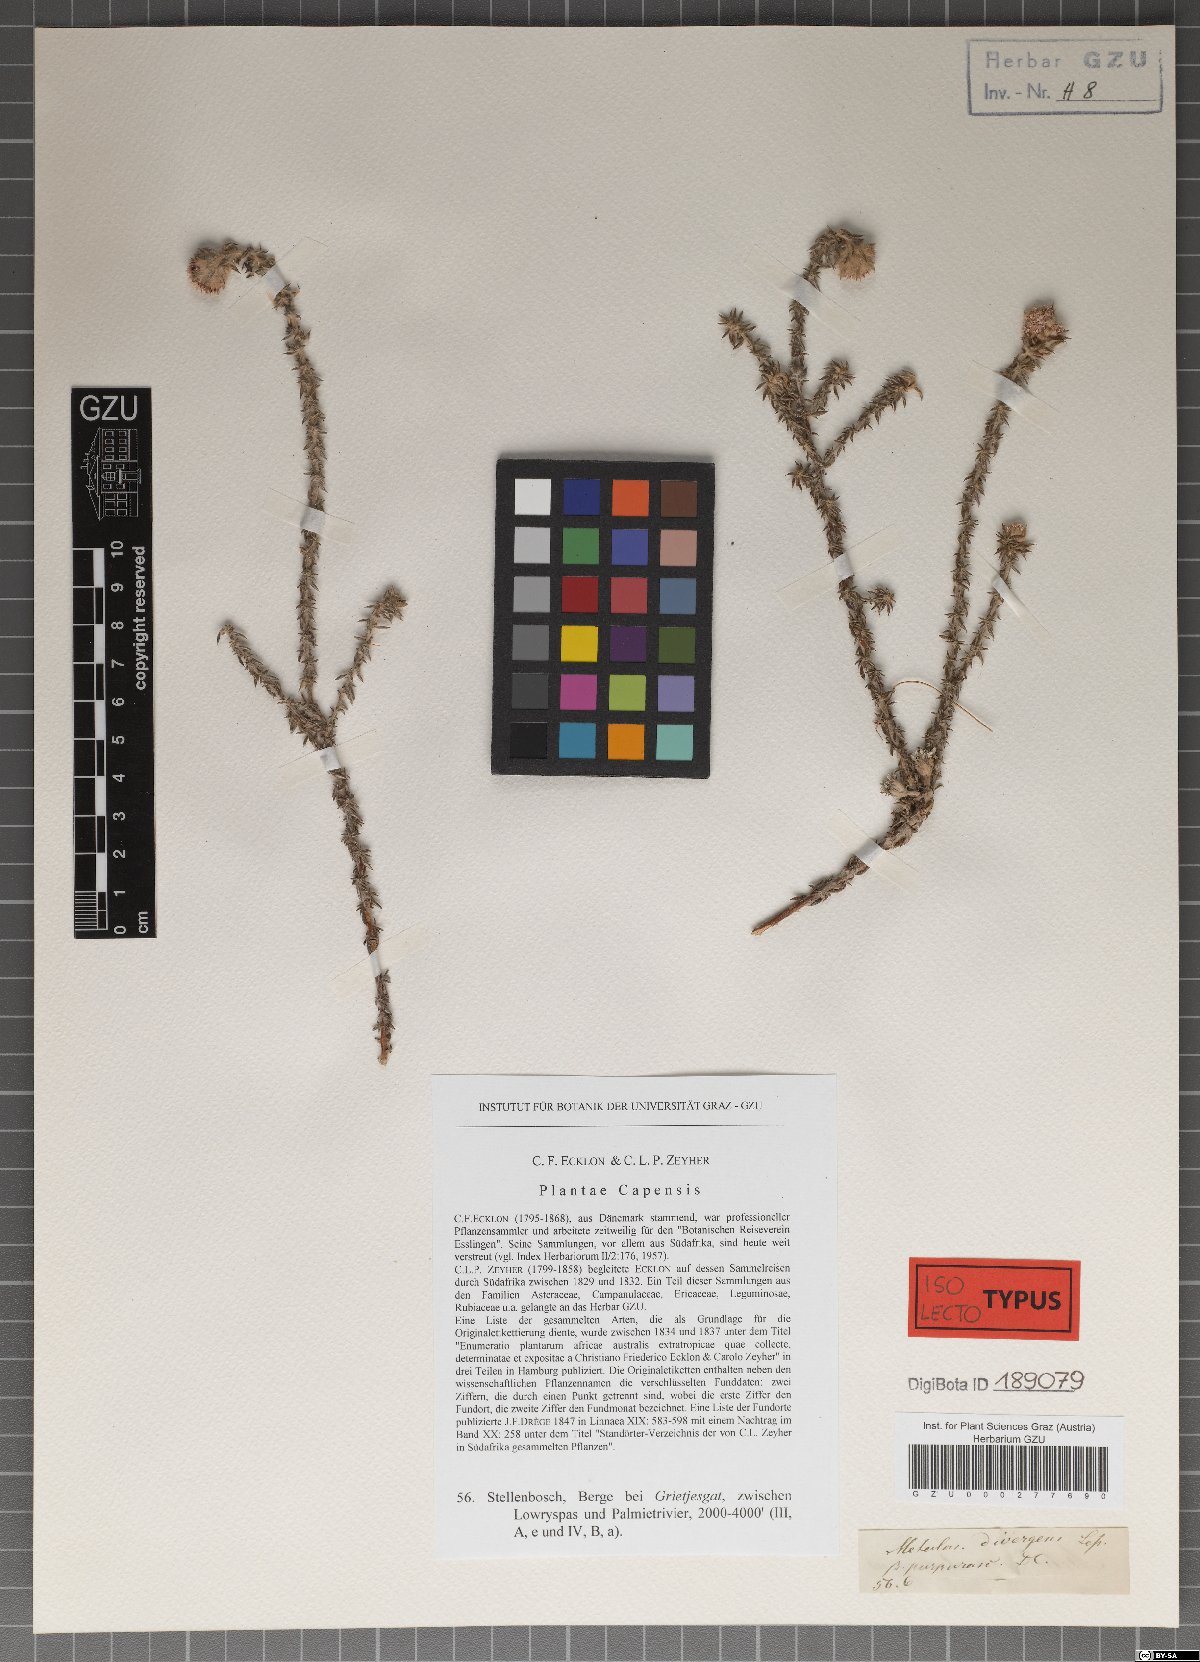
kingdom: Plantae
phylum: Tracheophyta
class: Magnoliopsida
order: Asterales
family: Asteraceae
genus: Metalasia
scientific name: Metalasia divergens
